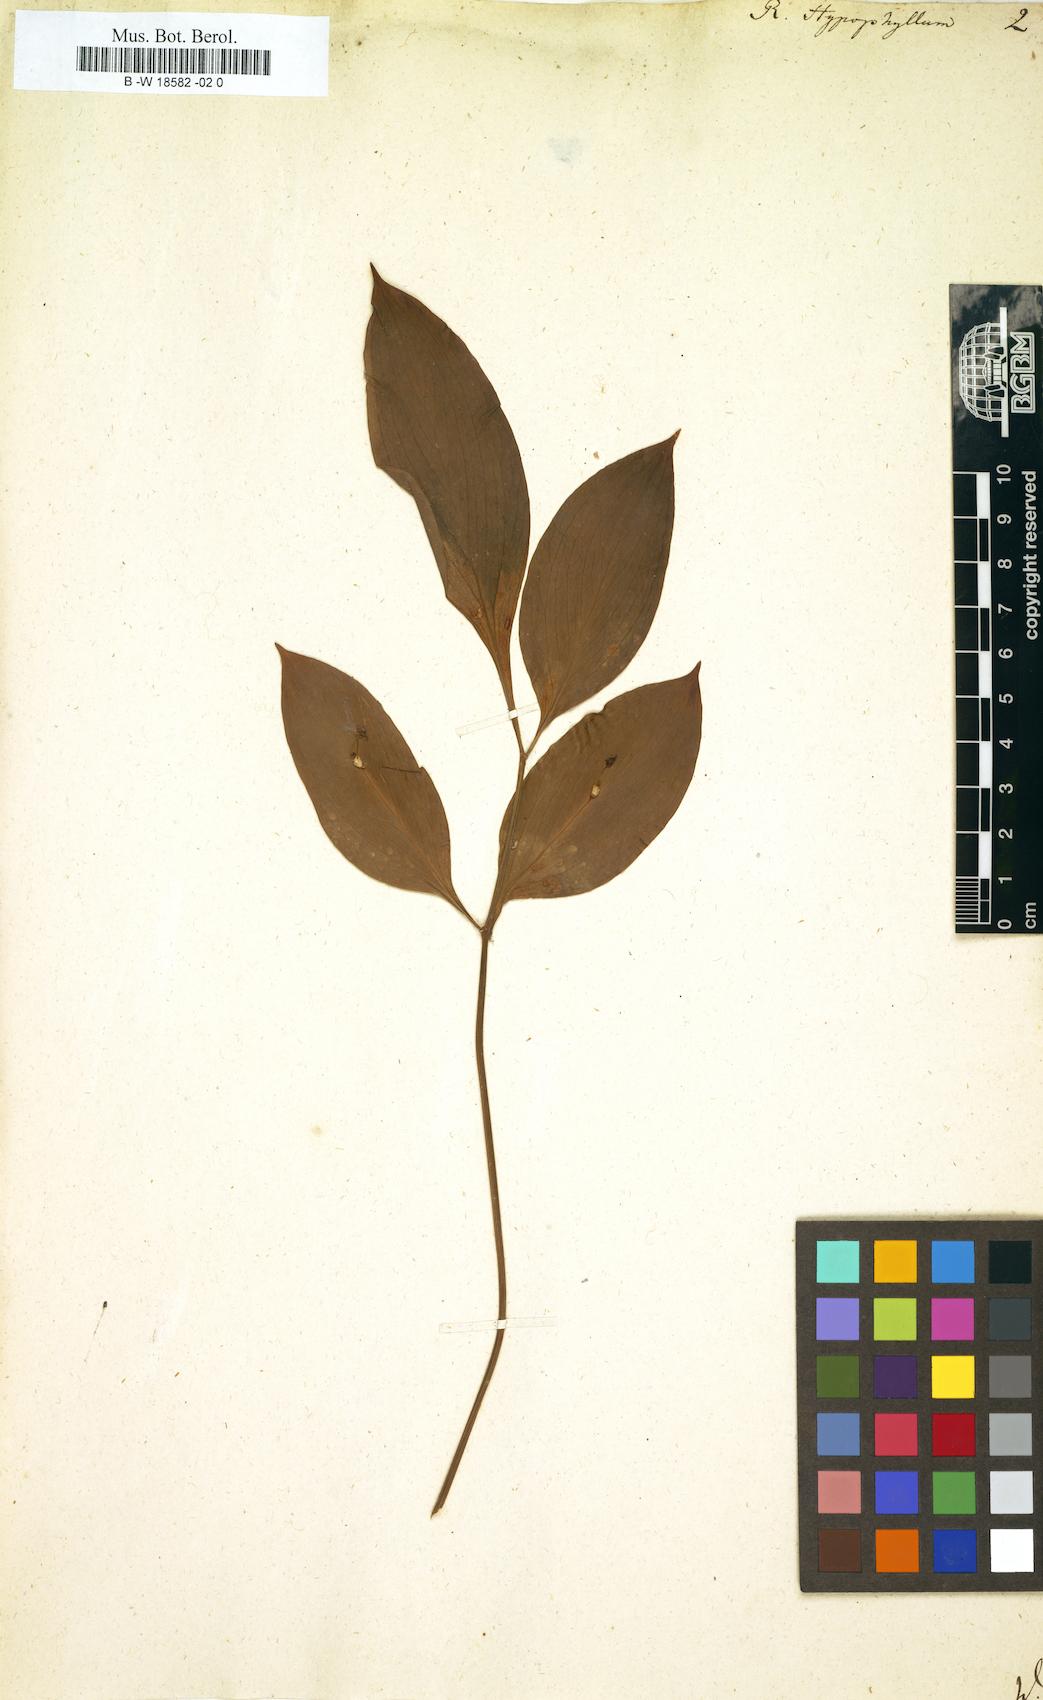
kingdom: Plantae
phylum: Tracheophyta
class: Liliopsida
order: Asparagales
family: Asparagaceae
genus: Ruscus
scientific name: Ruscus hypophyllum
